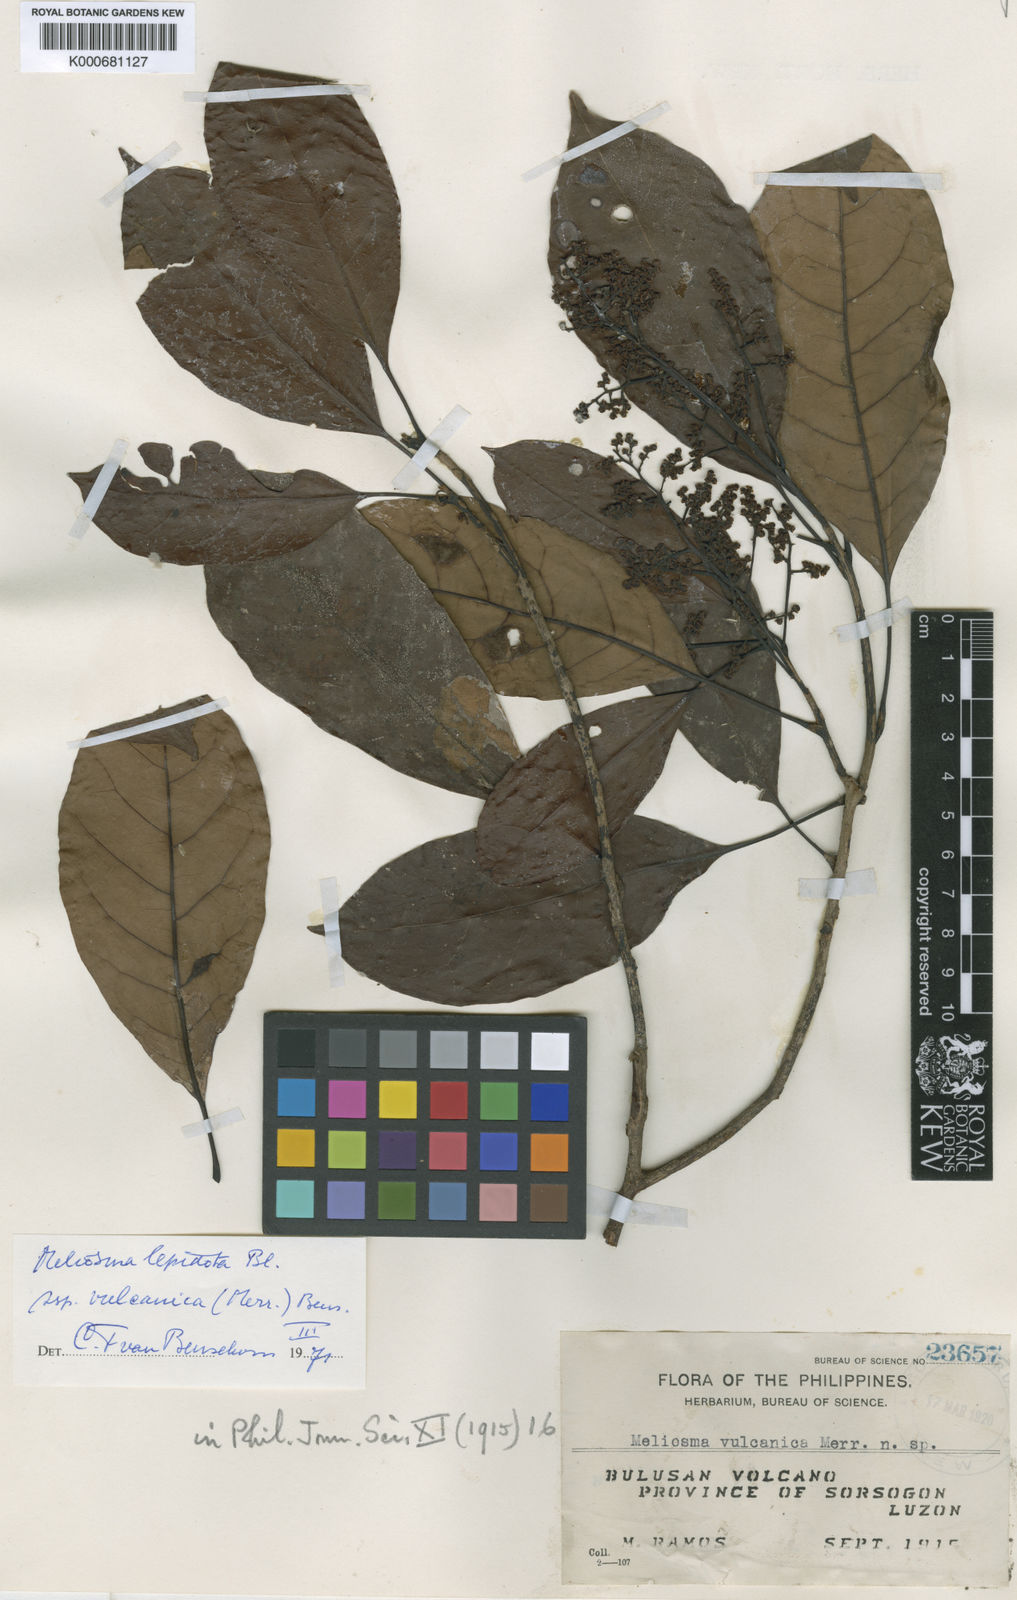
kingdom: Plantae
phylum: Tracheophyta
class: Magnoliopsida
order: Proteales
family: Sabiaceae
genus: Meliosma
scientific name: Meliosma lepidota
